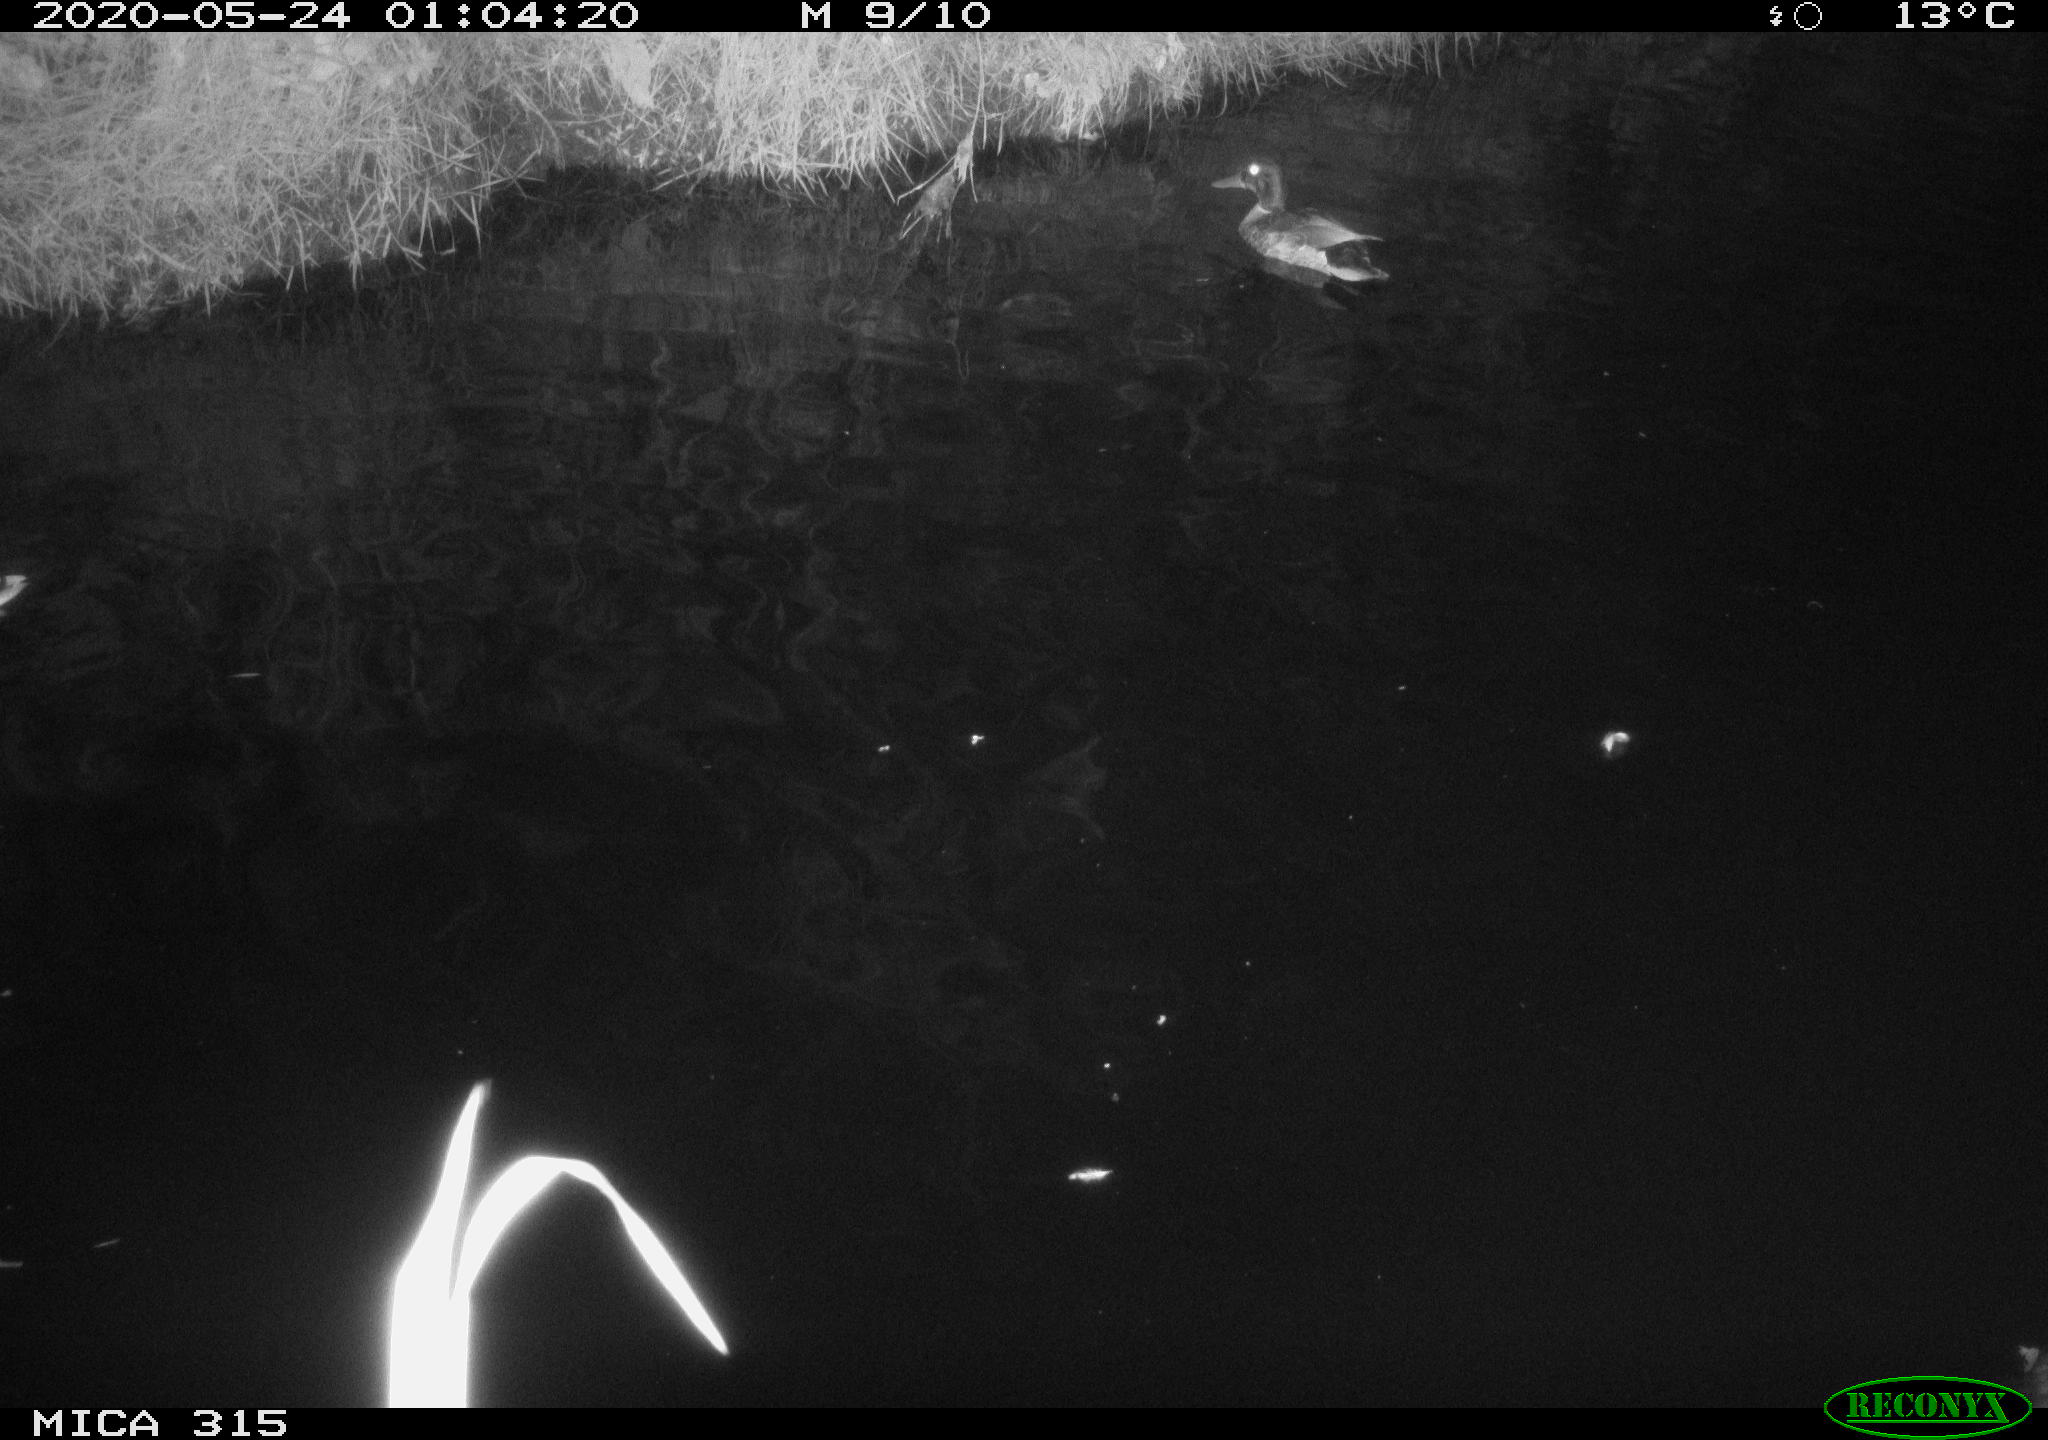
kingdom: Animalia
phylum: Chordata
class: Aves
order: Anseriformes
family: Anatidae
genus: Anas
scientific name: Anas platyrhynchos
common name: Mallard
